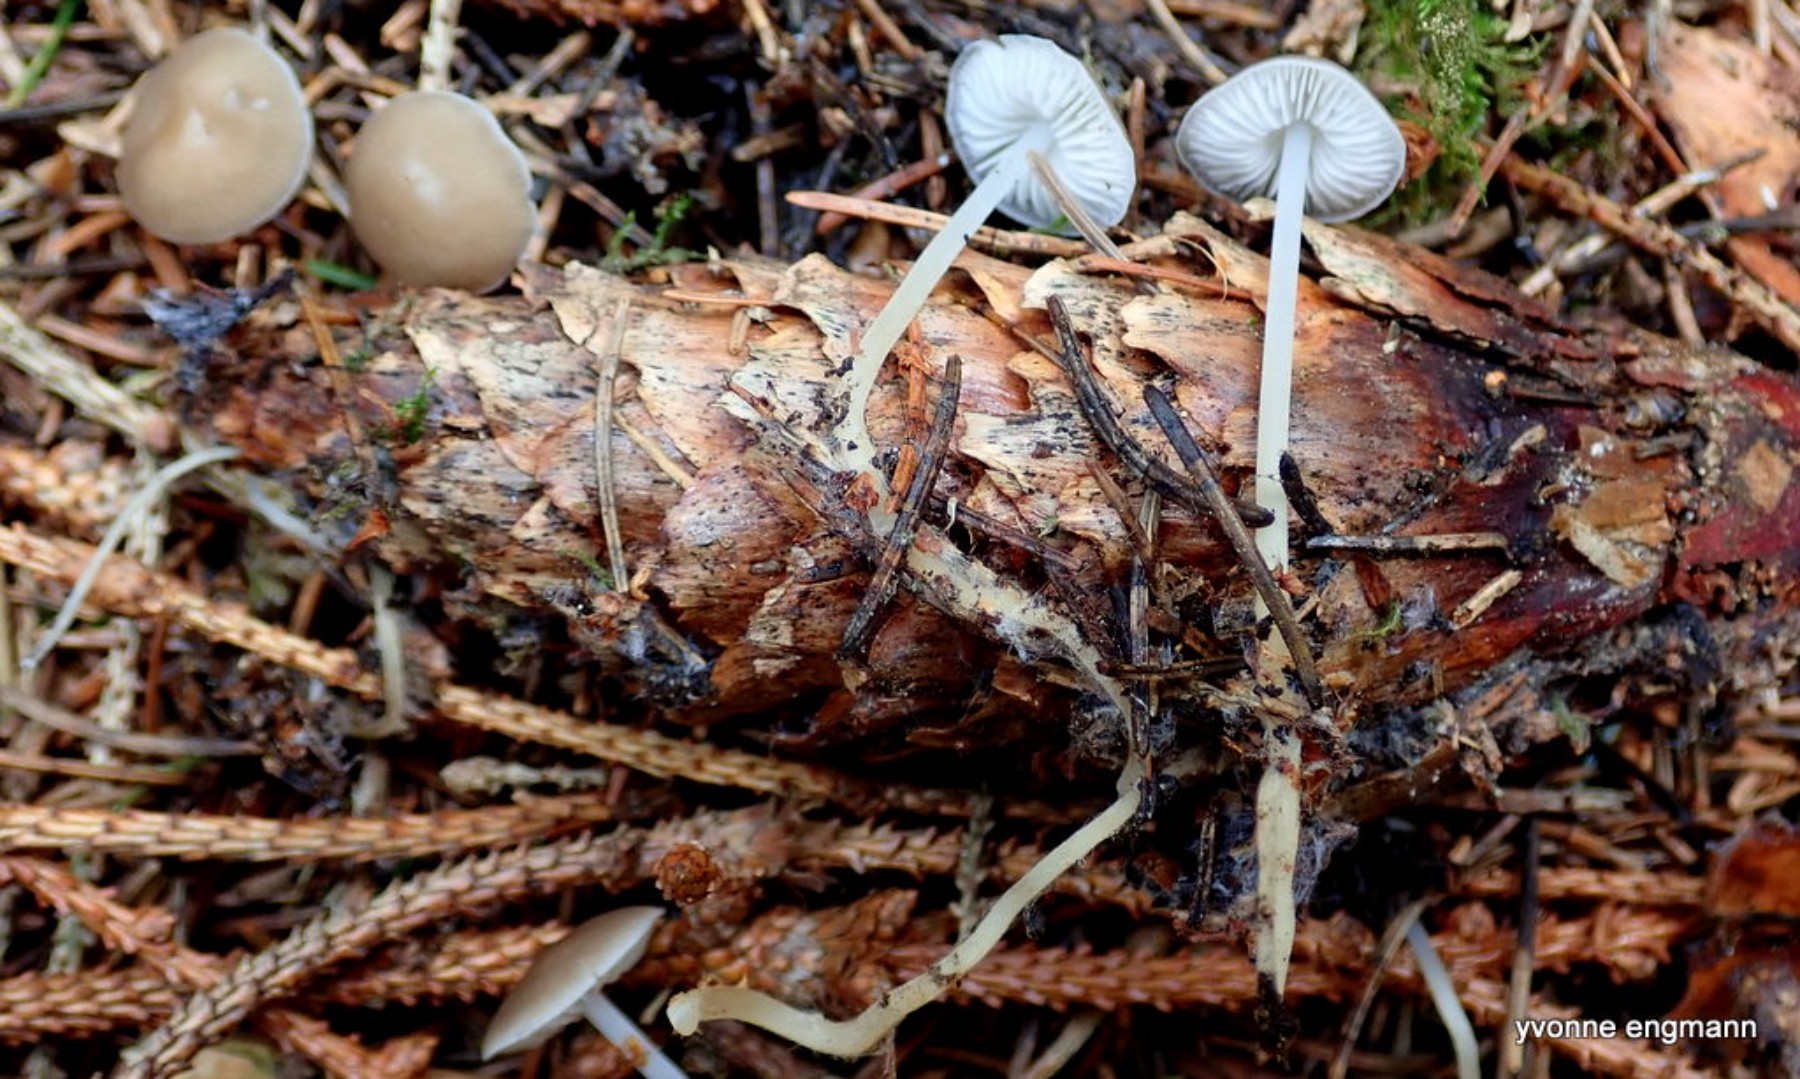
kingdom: Fungi
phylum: Basidiomycota
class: Agaricomycetes
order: Agaricales
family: Physalacriaceae
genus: Strobilurus
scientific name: Strobilurus esculentus
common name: gran-koglehat
